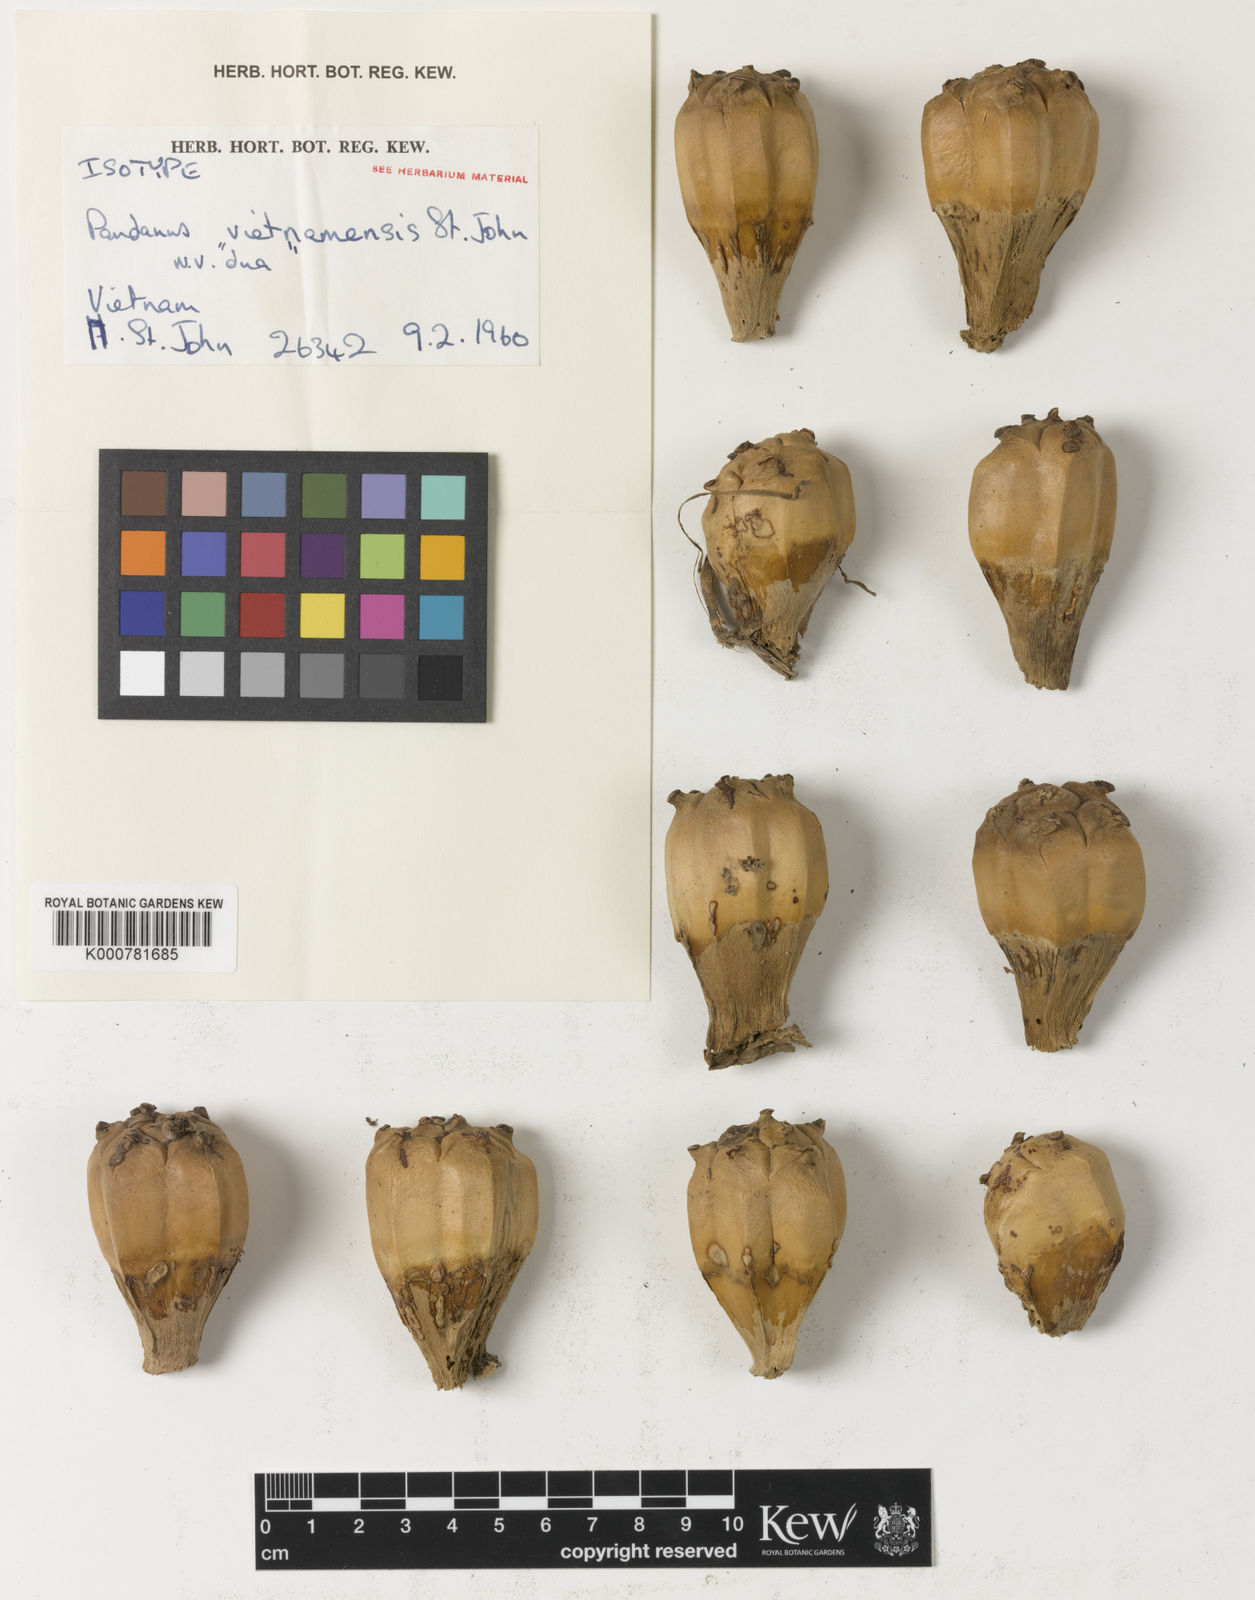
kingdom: Plantae
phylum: Tracheophyta
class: Liliopsida
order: Pandanales
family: Pandanaceae
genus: Pandanus
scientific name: Pandanus odorifer
